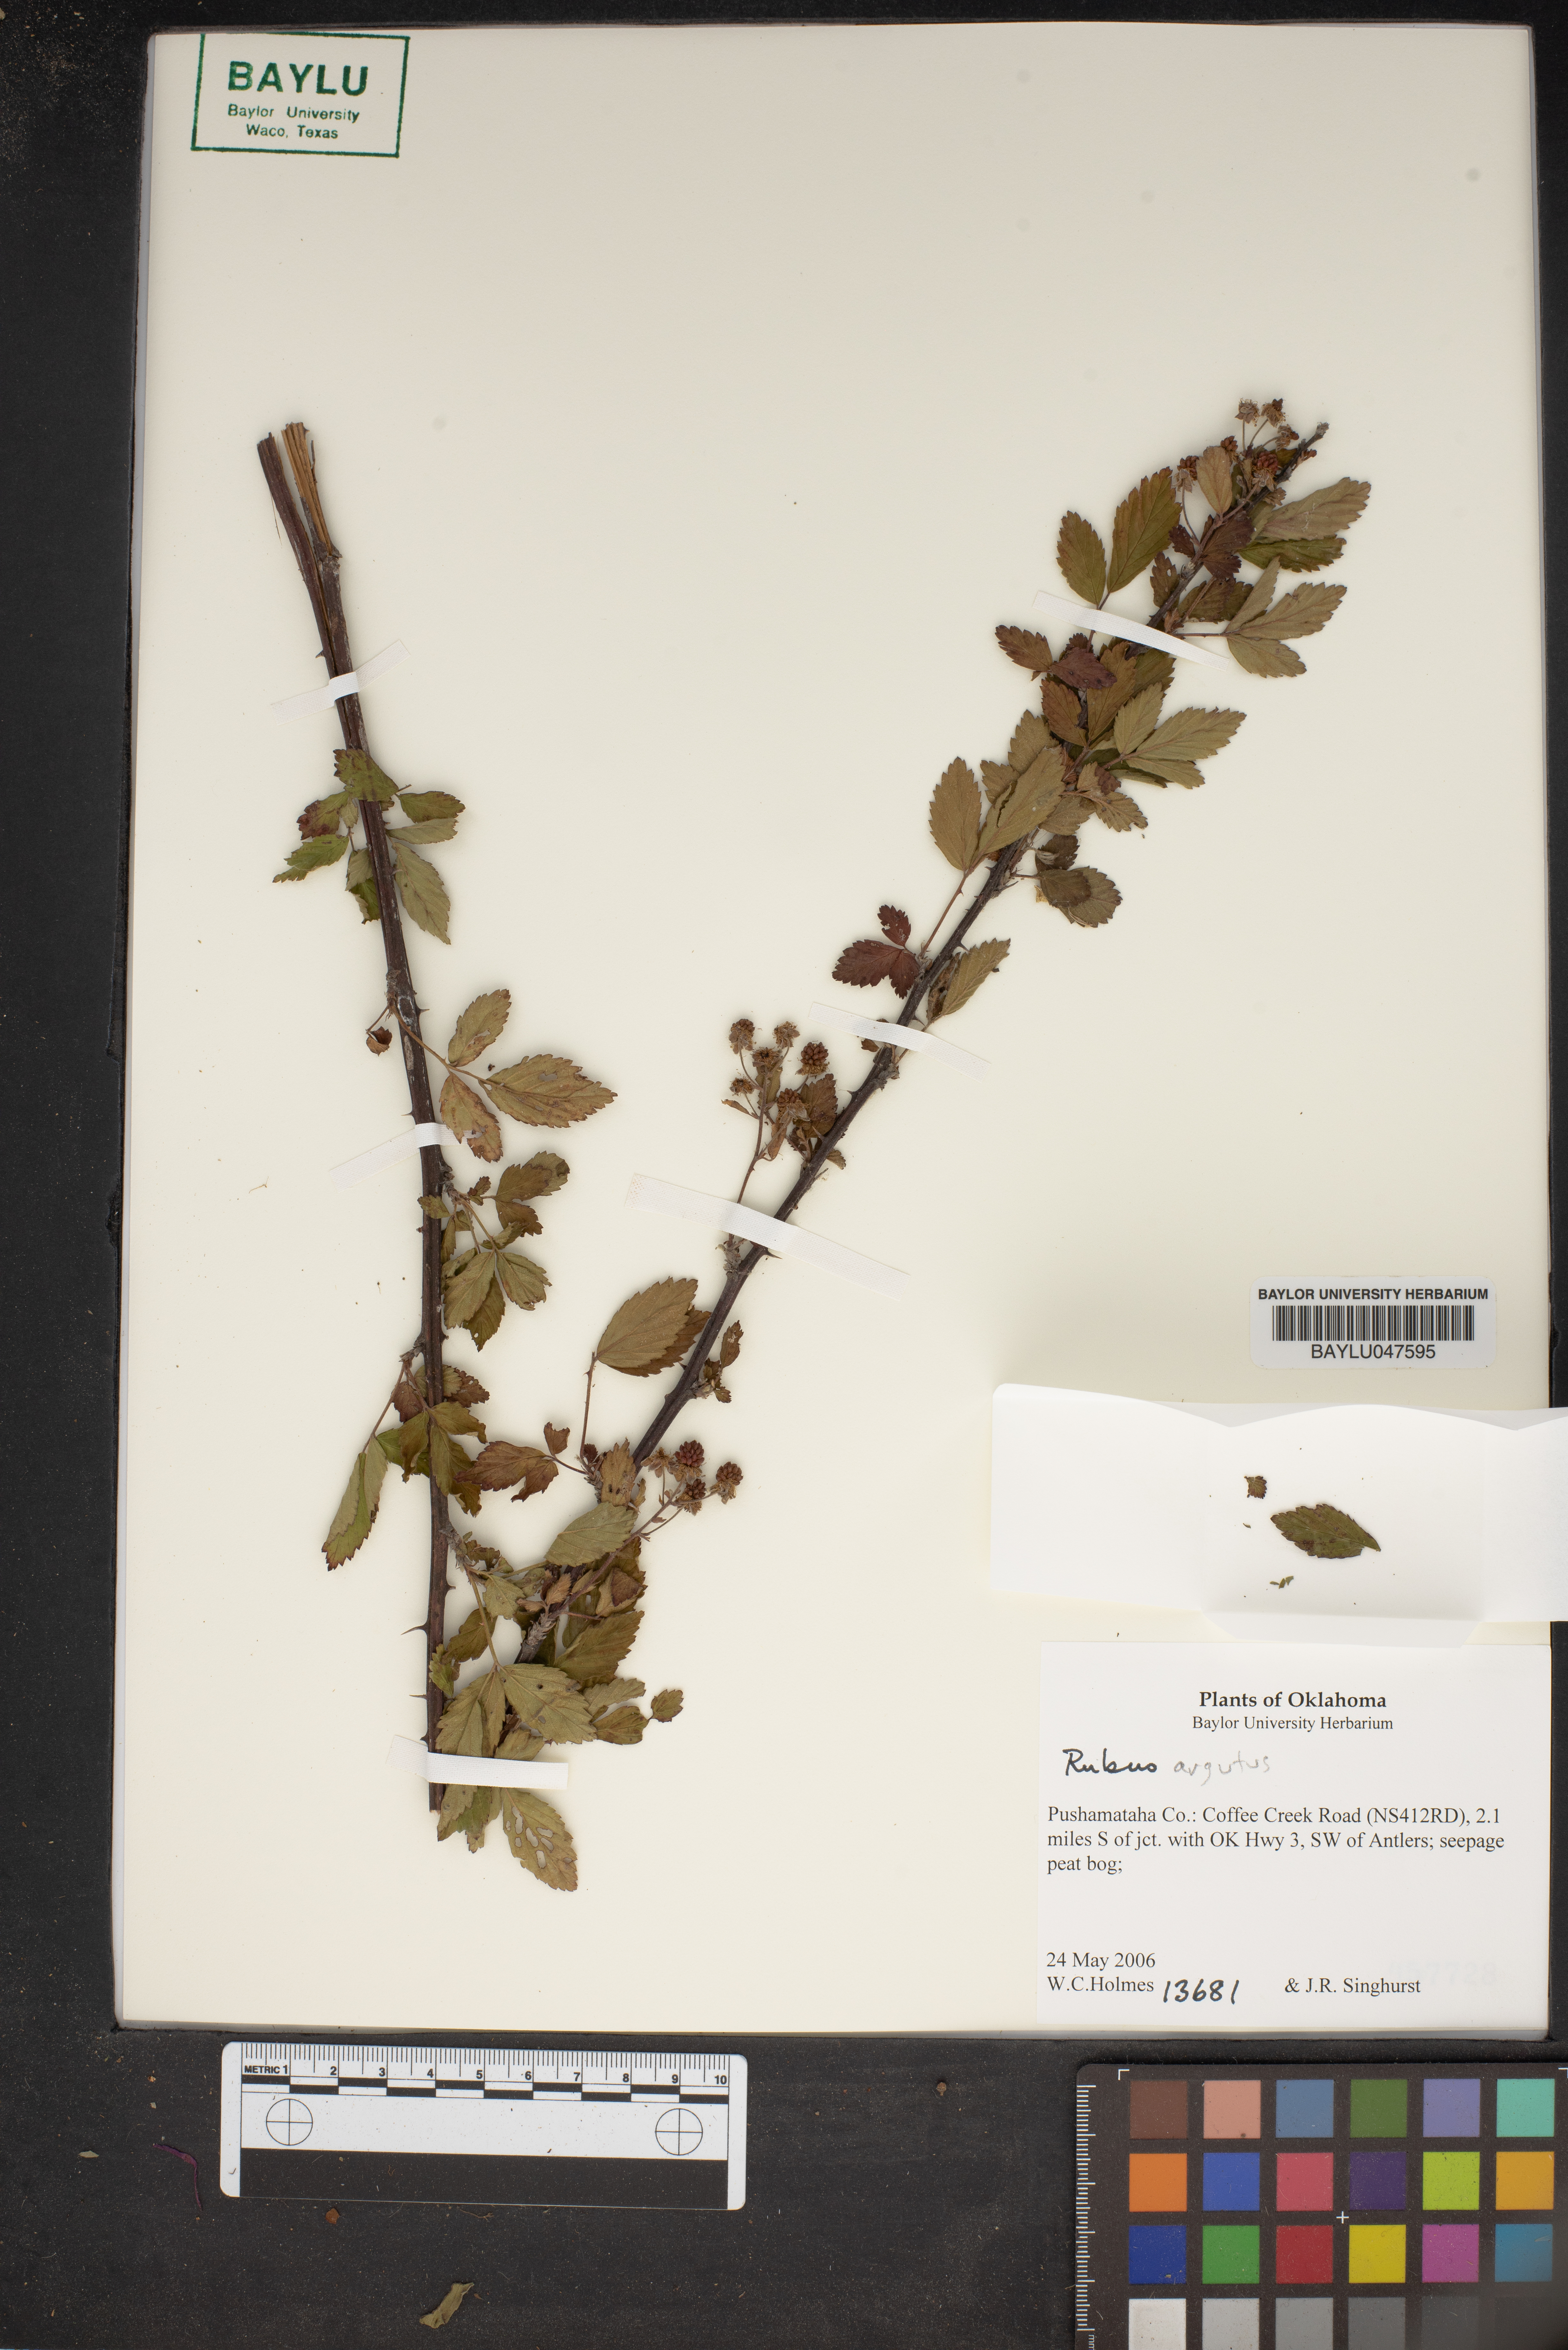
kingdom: Plantae
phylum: Tracheophyta
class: Magnoliopsida
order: Rosales
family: Rosaceae
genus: Rubus
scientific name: Rubus argutus
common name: Sawtooth blackberry
